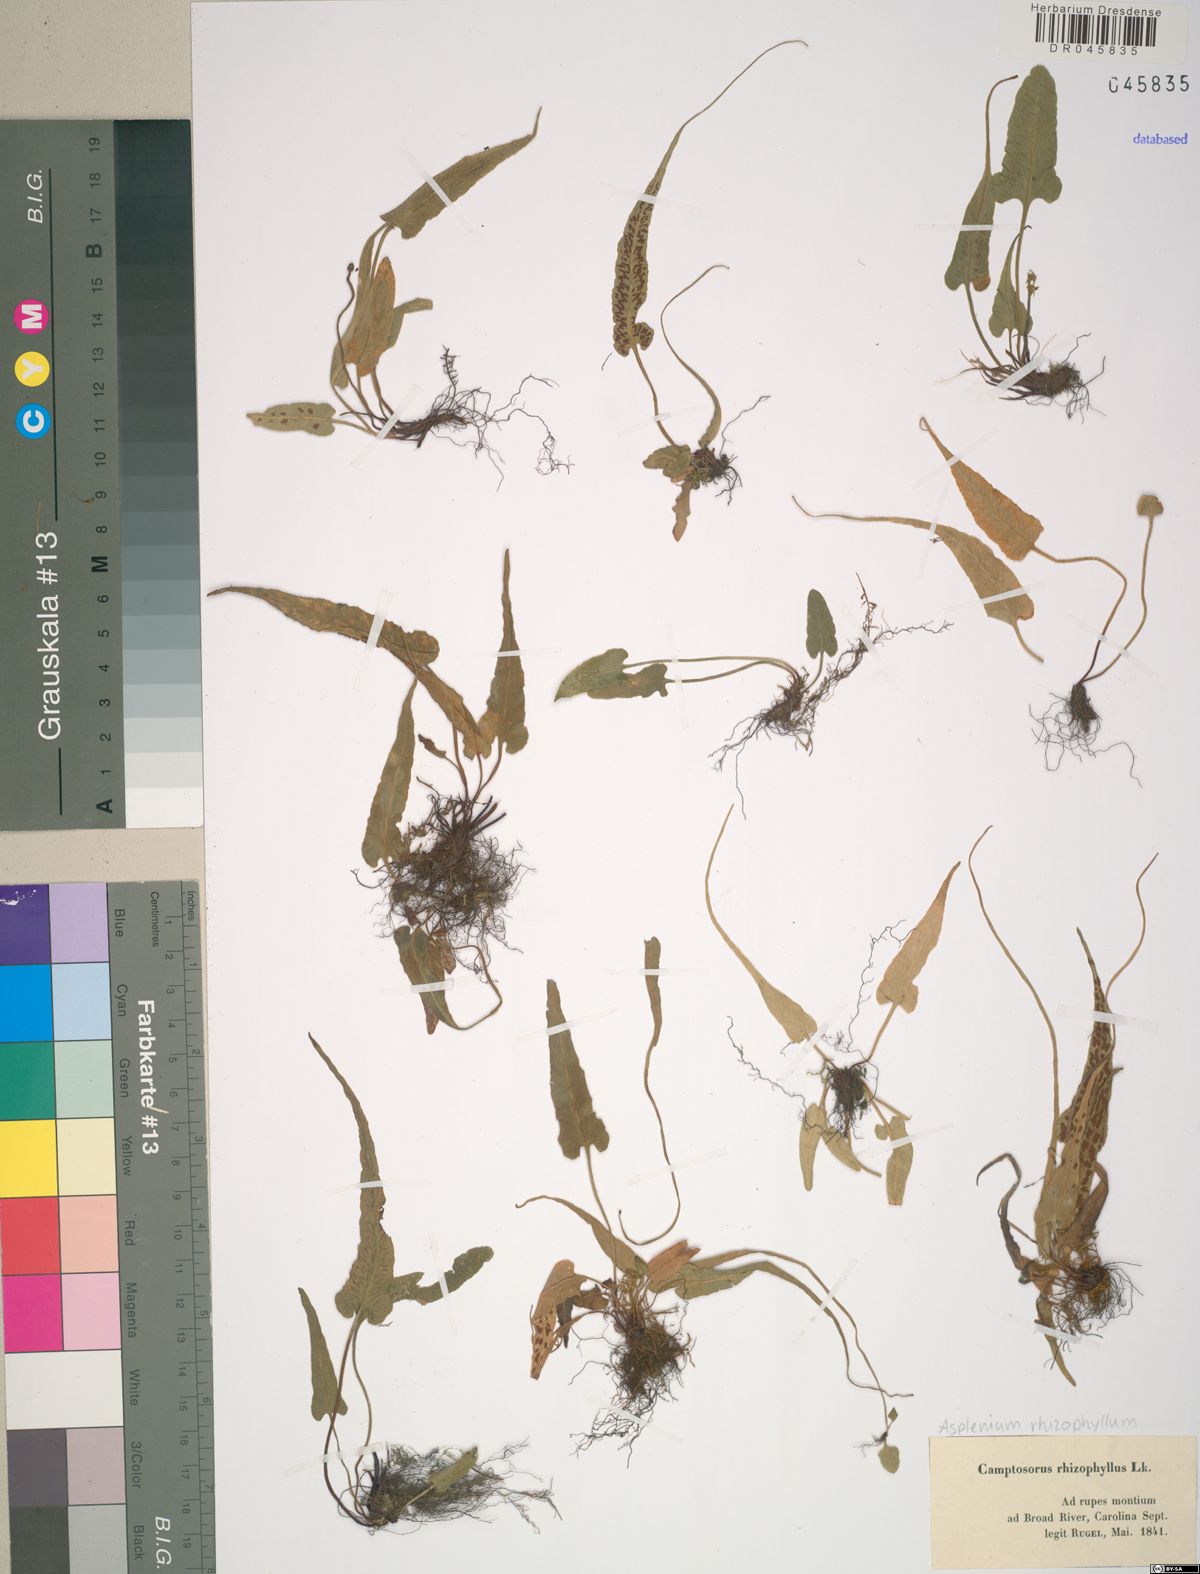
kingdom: Plantae
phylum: Tracheophyta
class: Polypodiopsida
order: Polypodiales
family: Aspleniaceae
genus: Asplenium
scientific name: Asplenium rhizophyllum
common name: Walking fern
